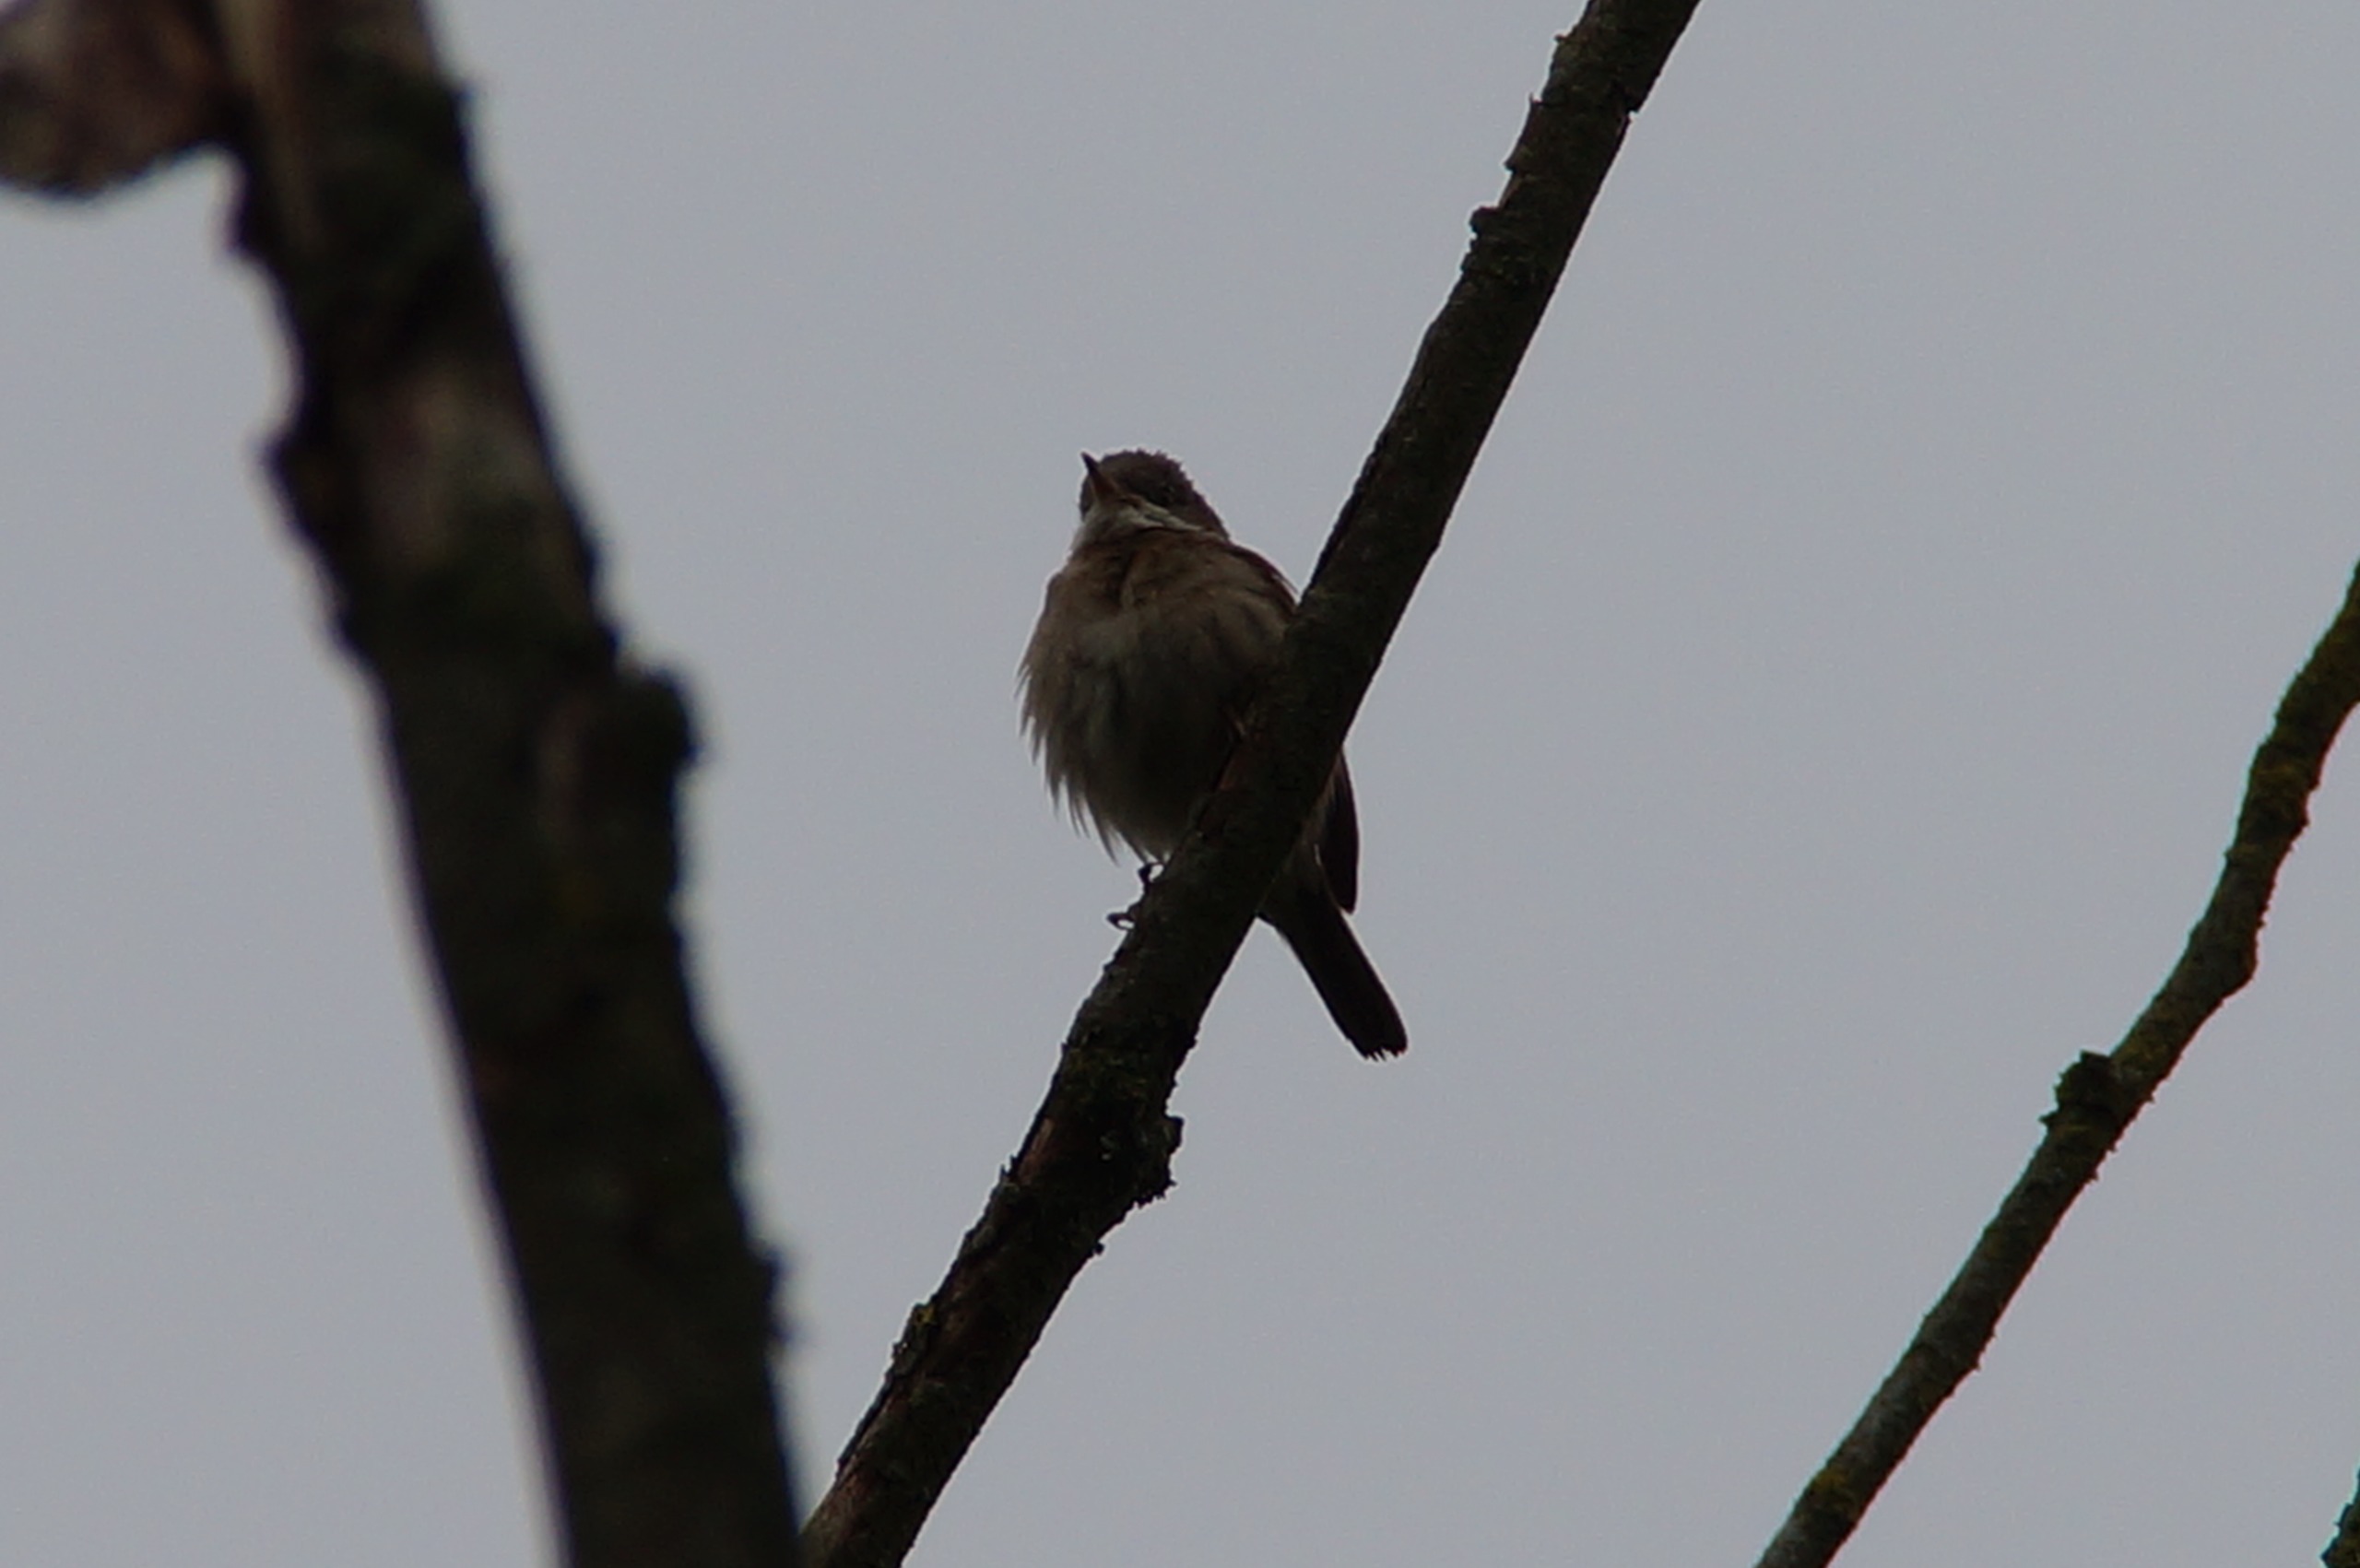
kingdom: Animalia
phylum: Chordata
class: Aves
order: Passeriformes
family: Sylviidae
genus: Sylvia
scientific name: Sylvia communis
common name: Tornsanger
